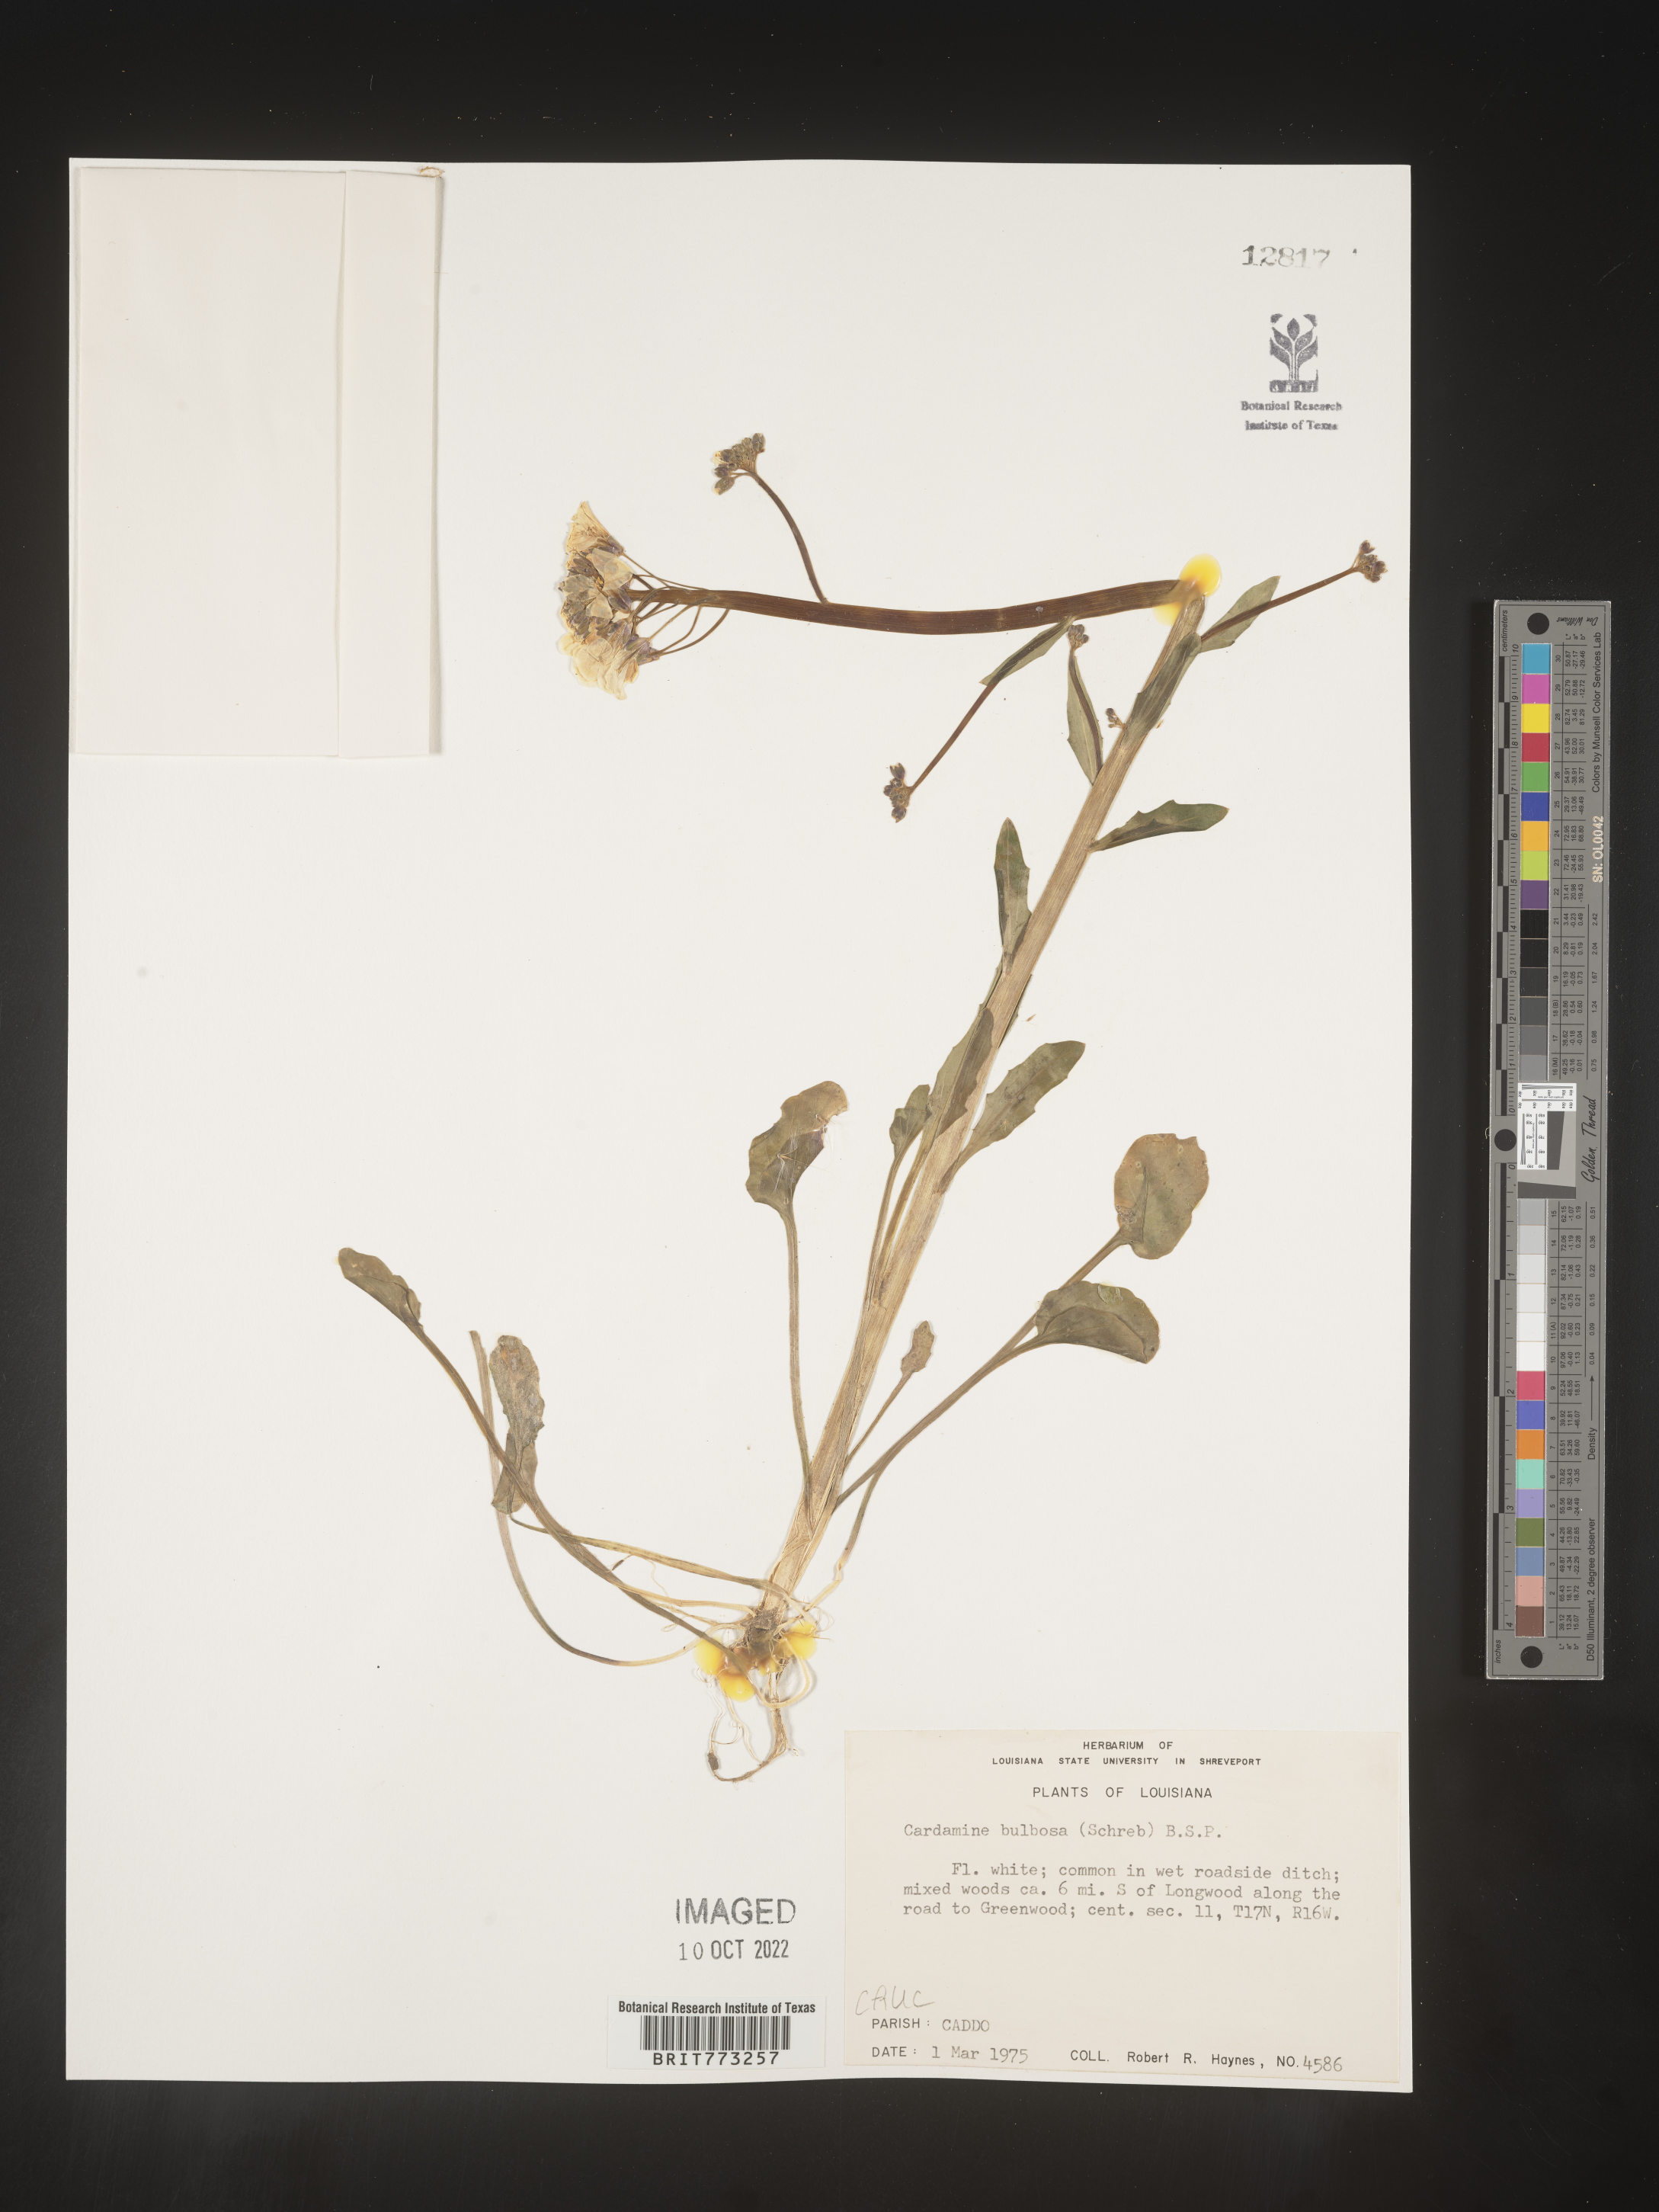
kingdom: Plantae
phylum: Tracheophyta
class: Magnoliopsida
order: Brassicales
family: Brassicaceae
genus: Cardamine
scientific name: Cardamine bulbosa
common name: Spring cress
